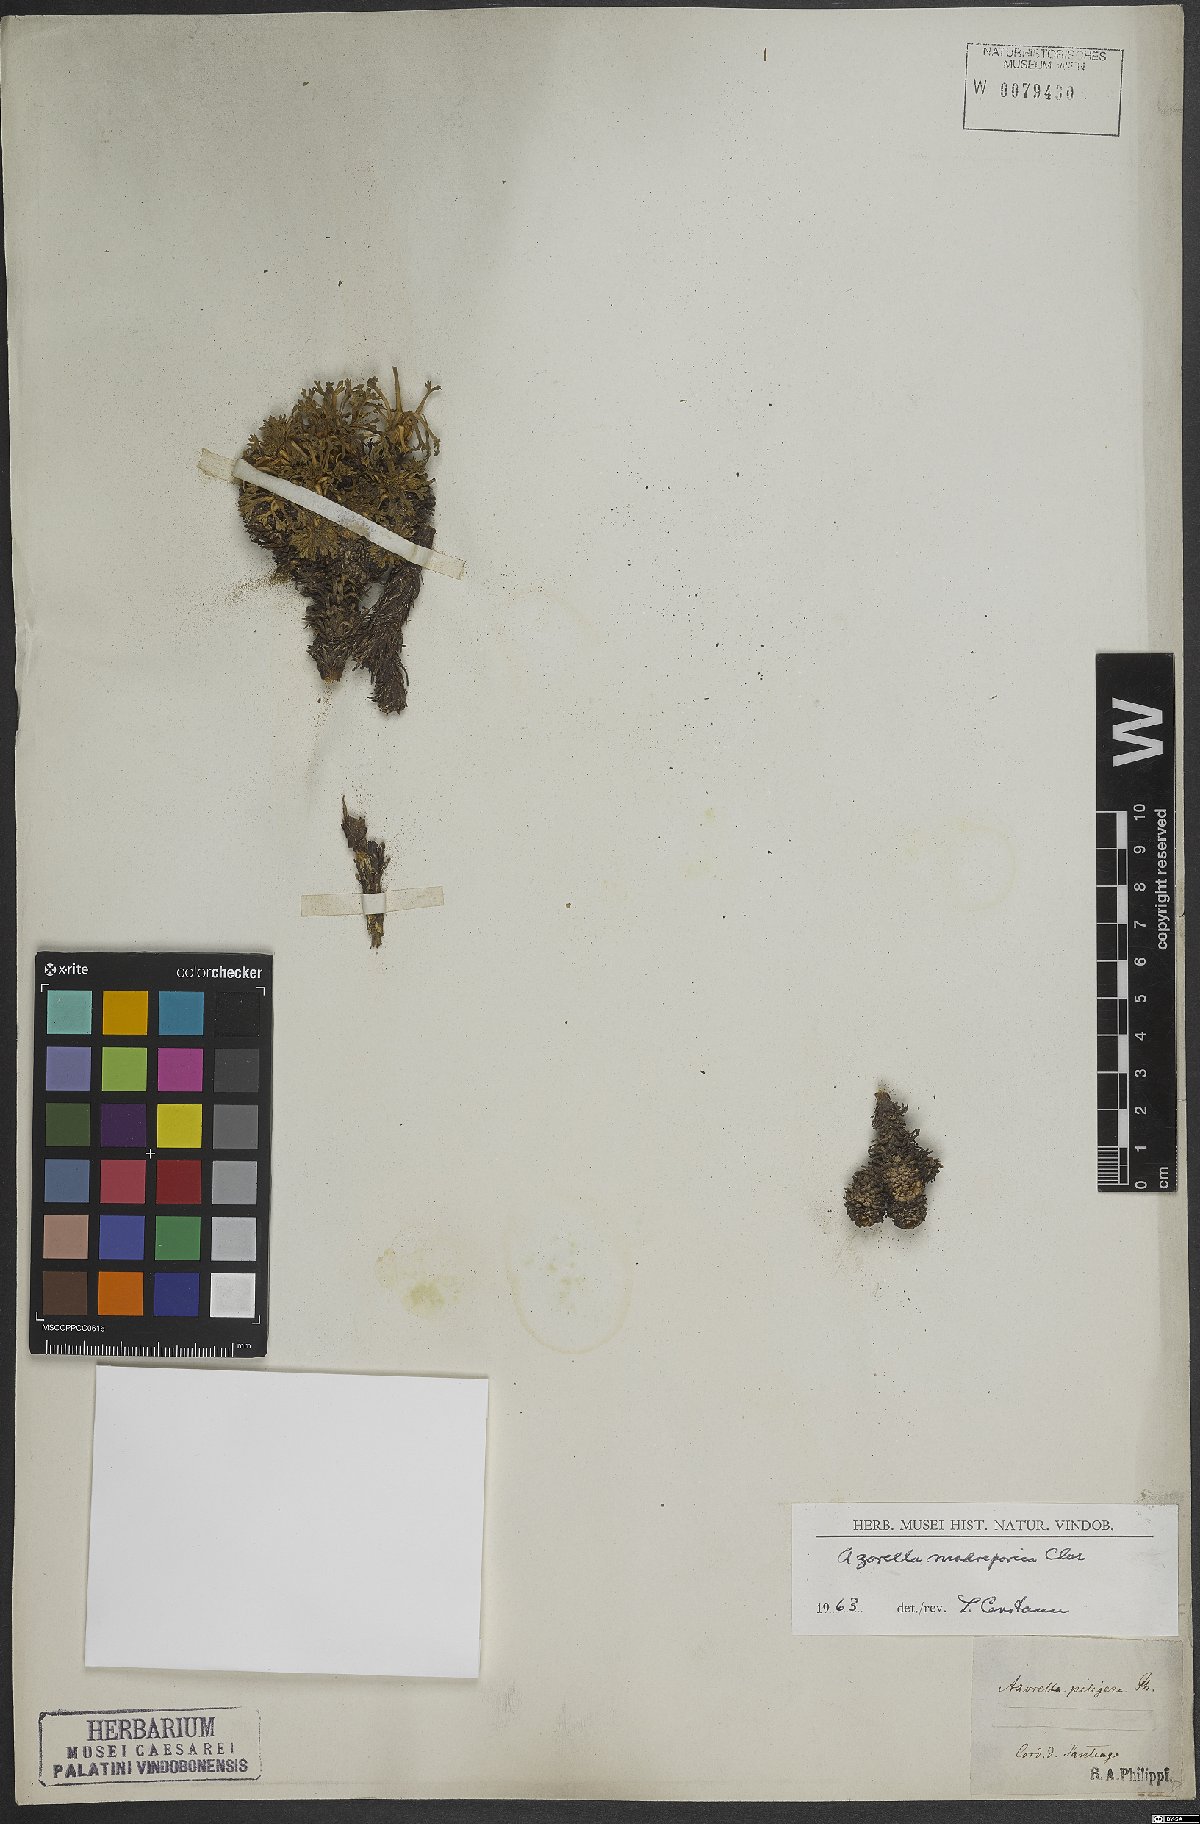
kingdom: Plantae
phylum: Tracheophyta
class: Magnoliopsida
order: Apiales
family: Apiaceae
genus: Azorella
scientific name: Azorella madreporica
